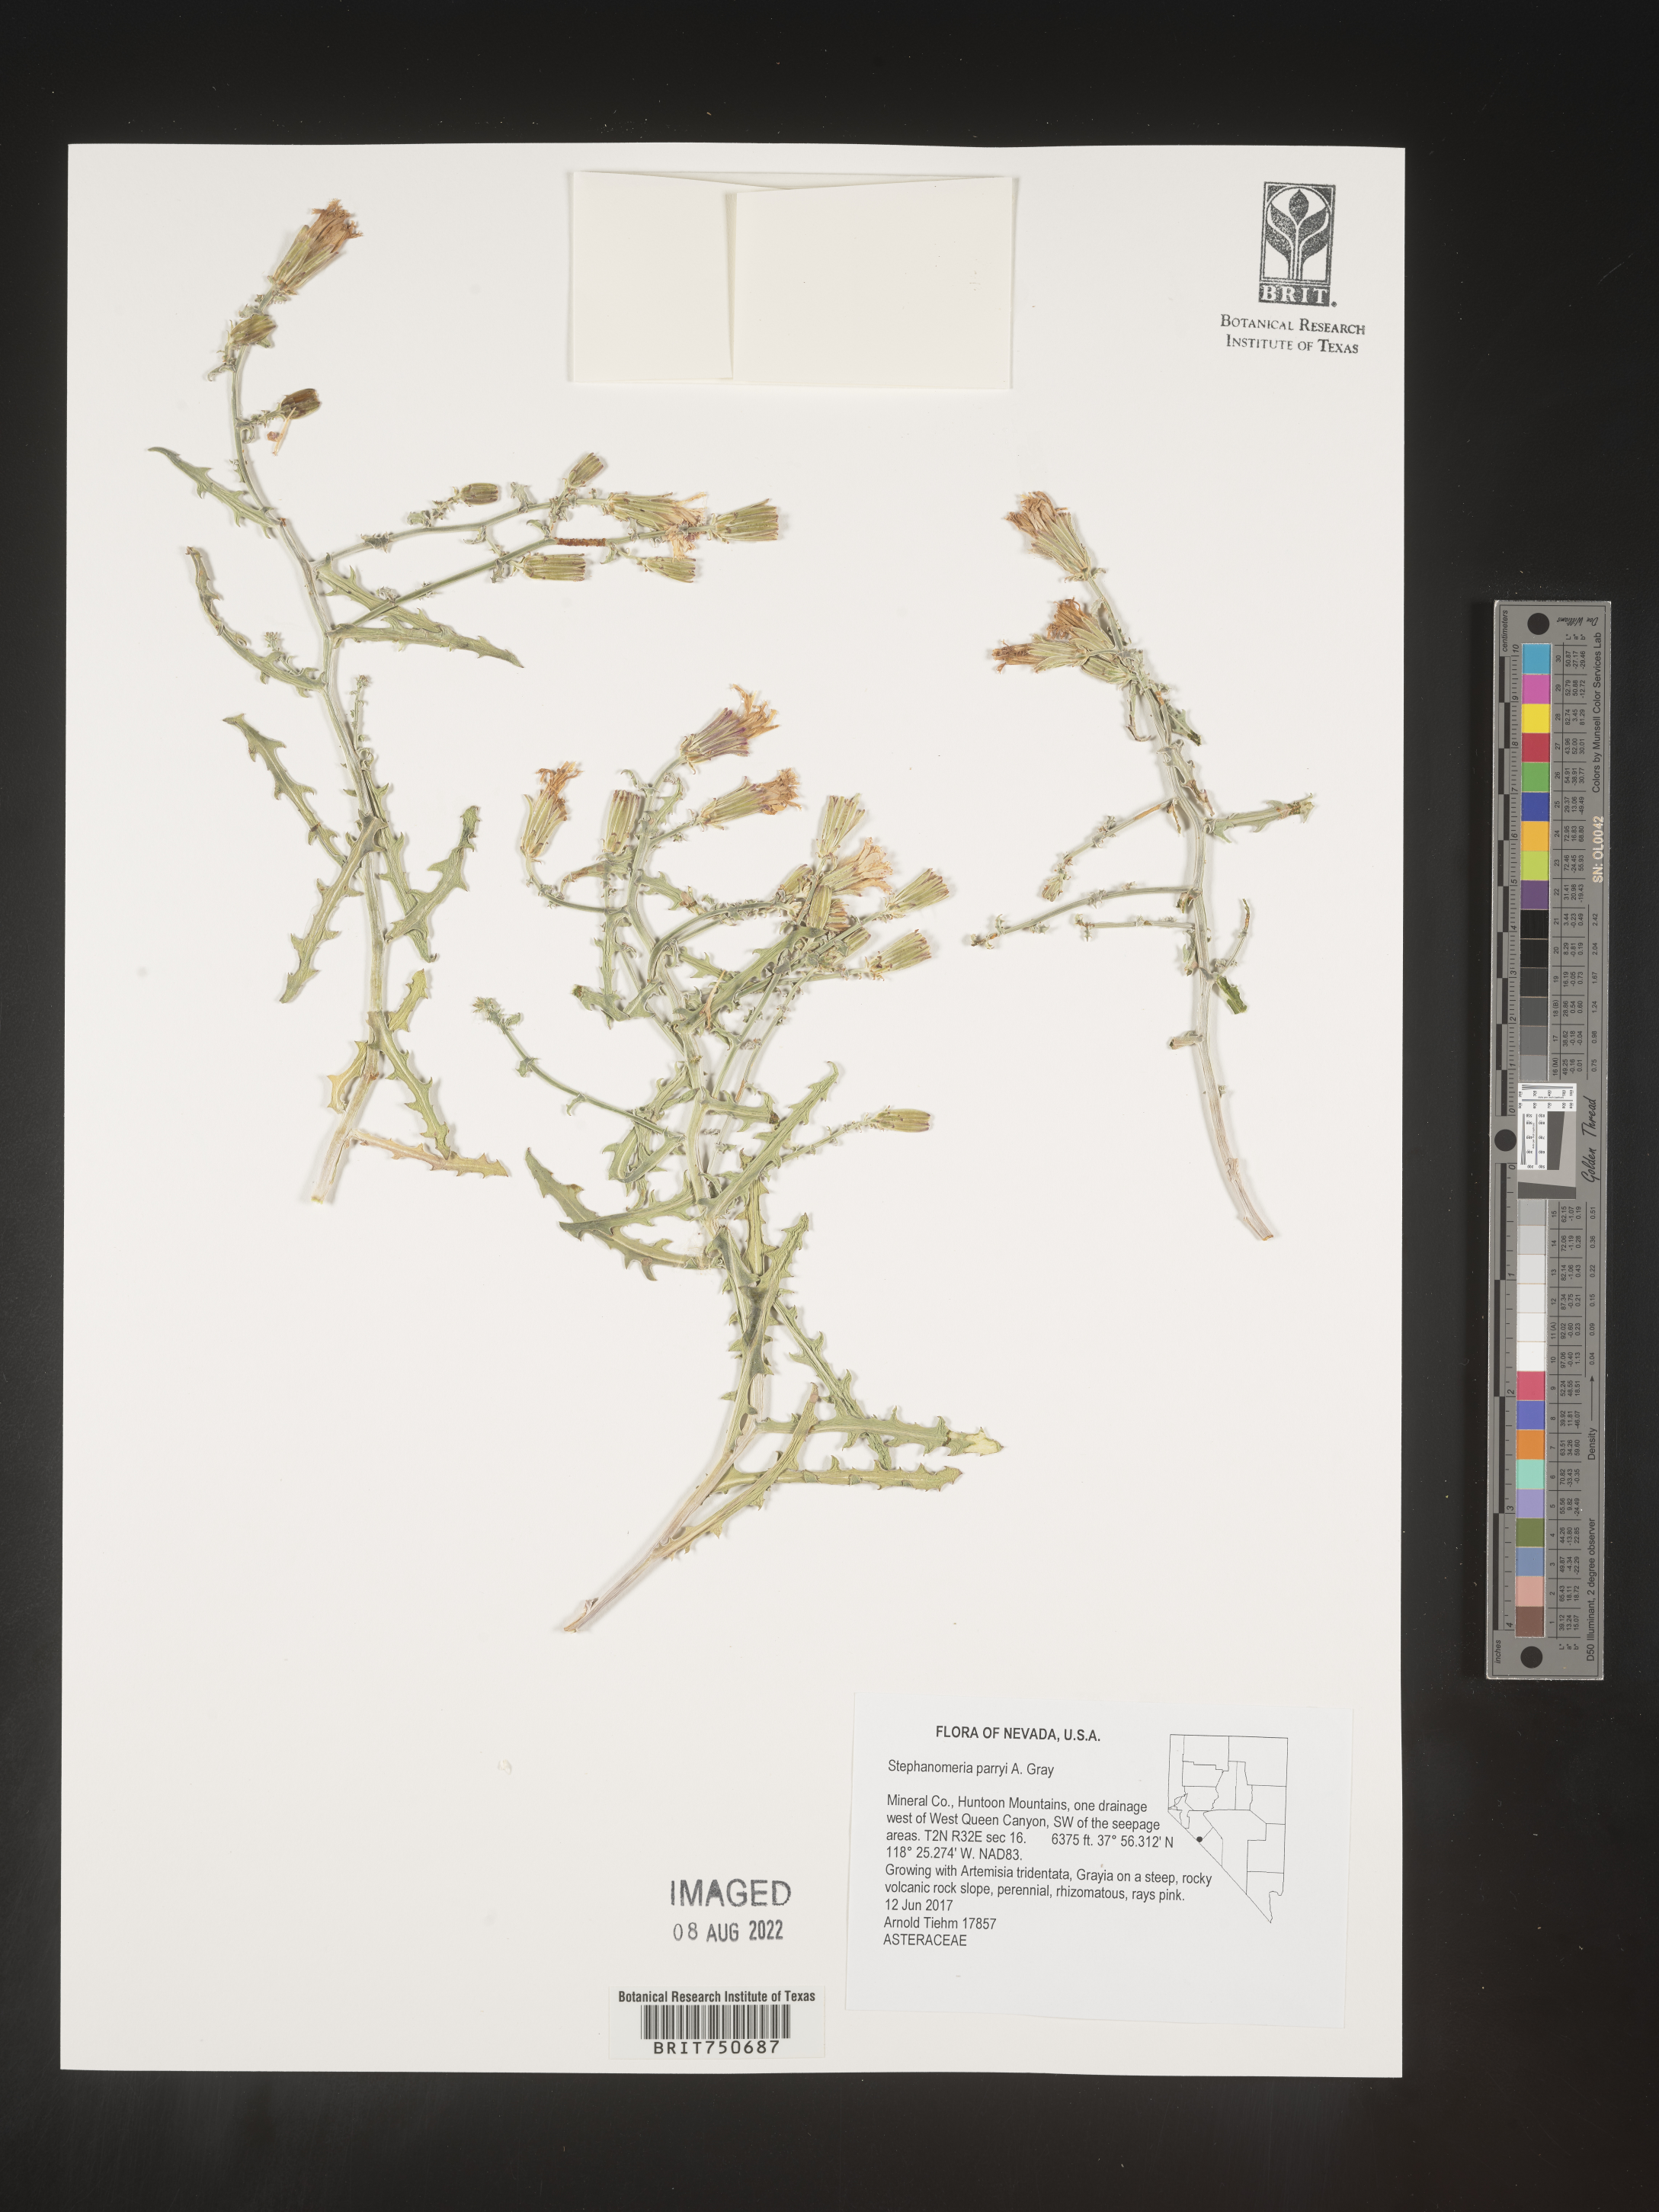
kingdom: Plantae
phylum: Tracheophyta
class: Magnoliopsida
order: Asterales
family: Asteraceae
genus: Stephanomeria
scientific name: Stephanomeria parryi
